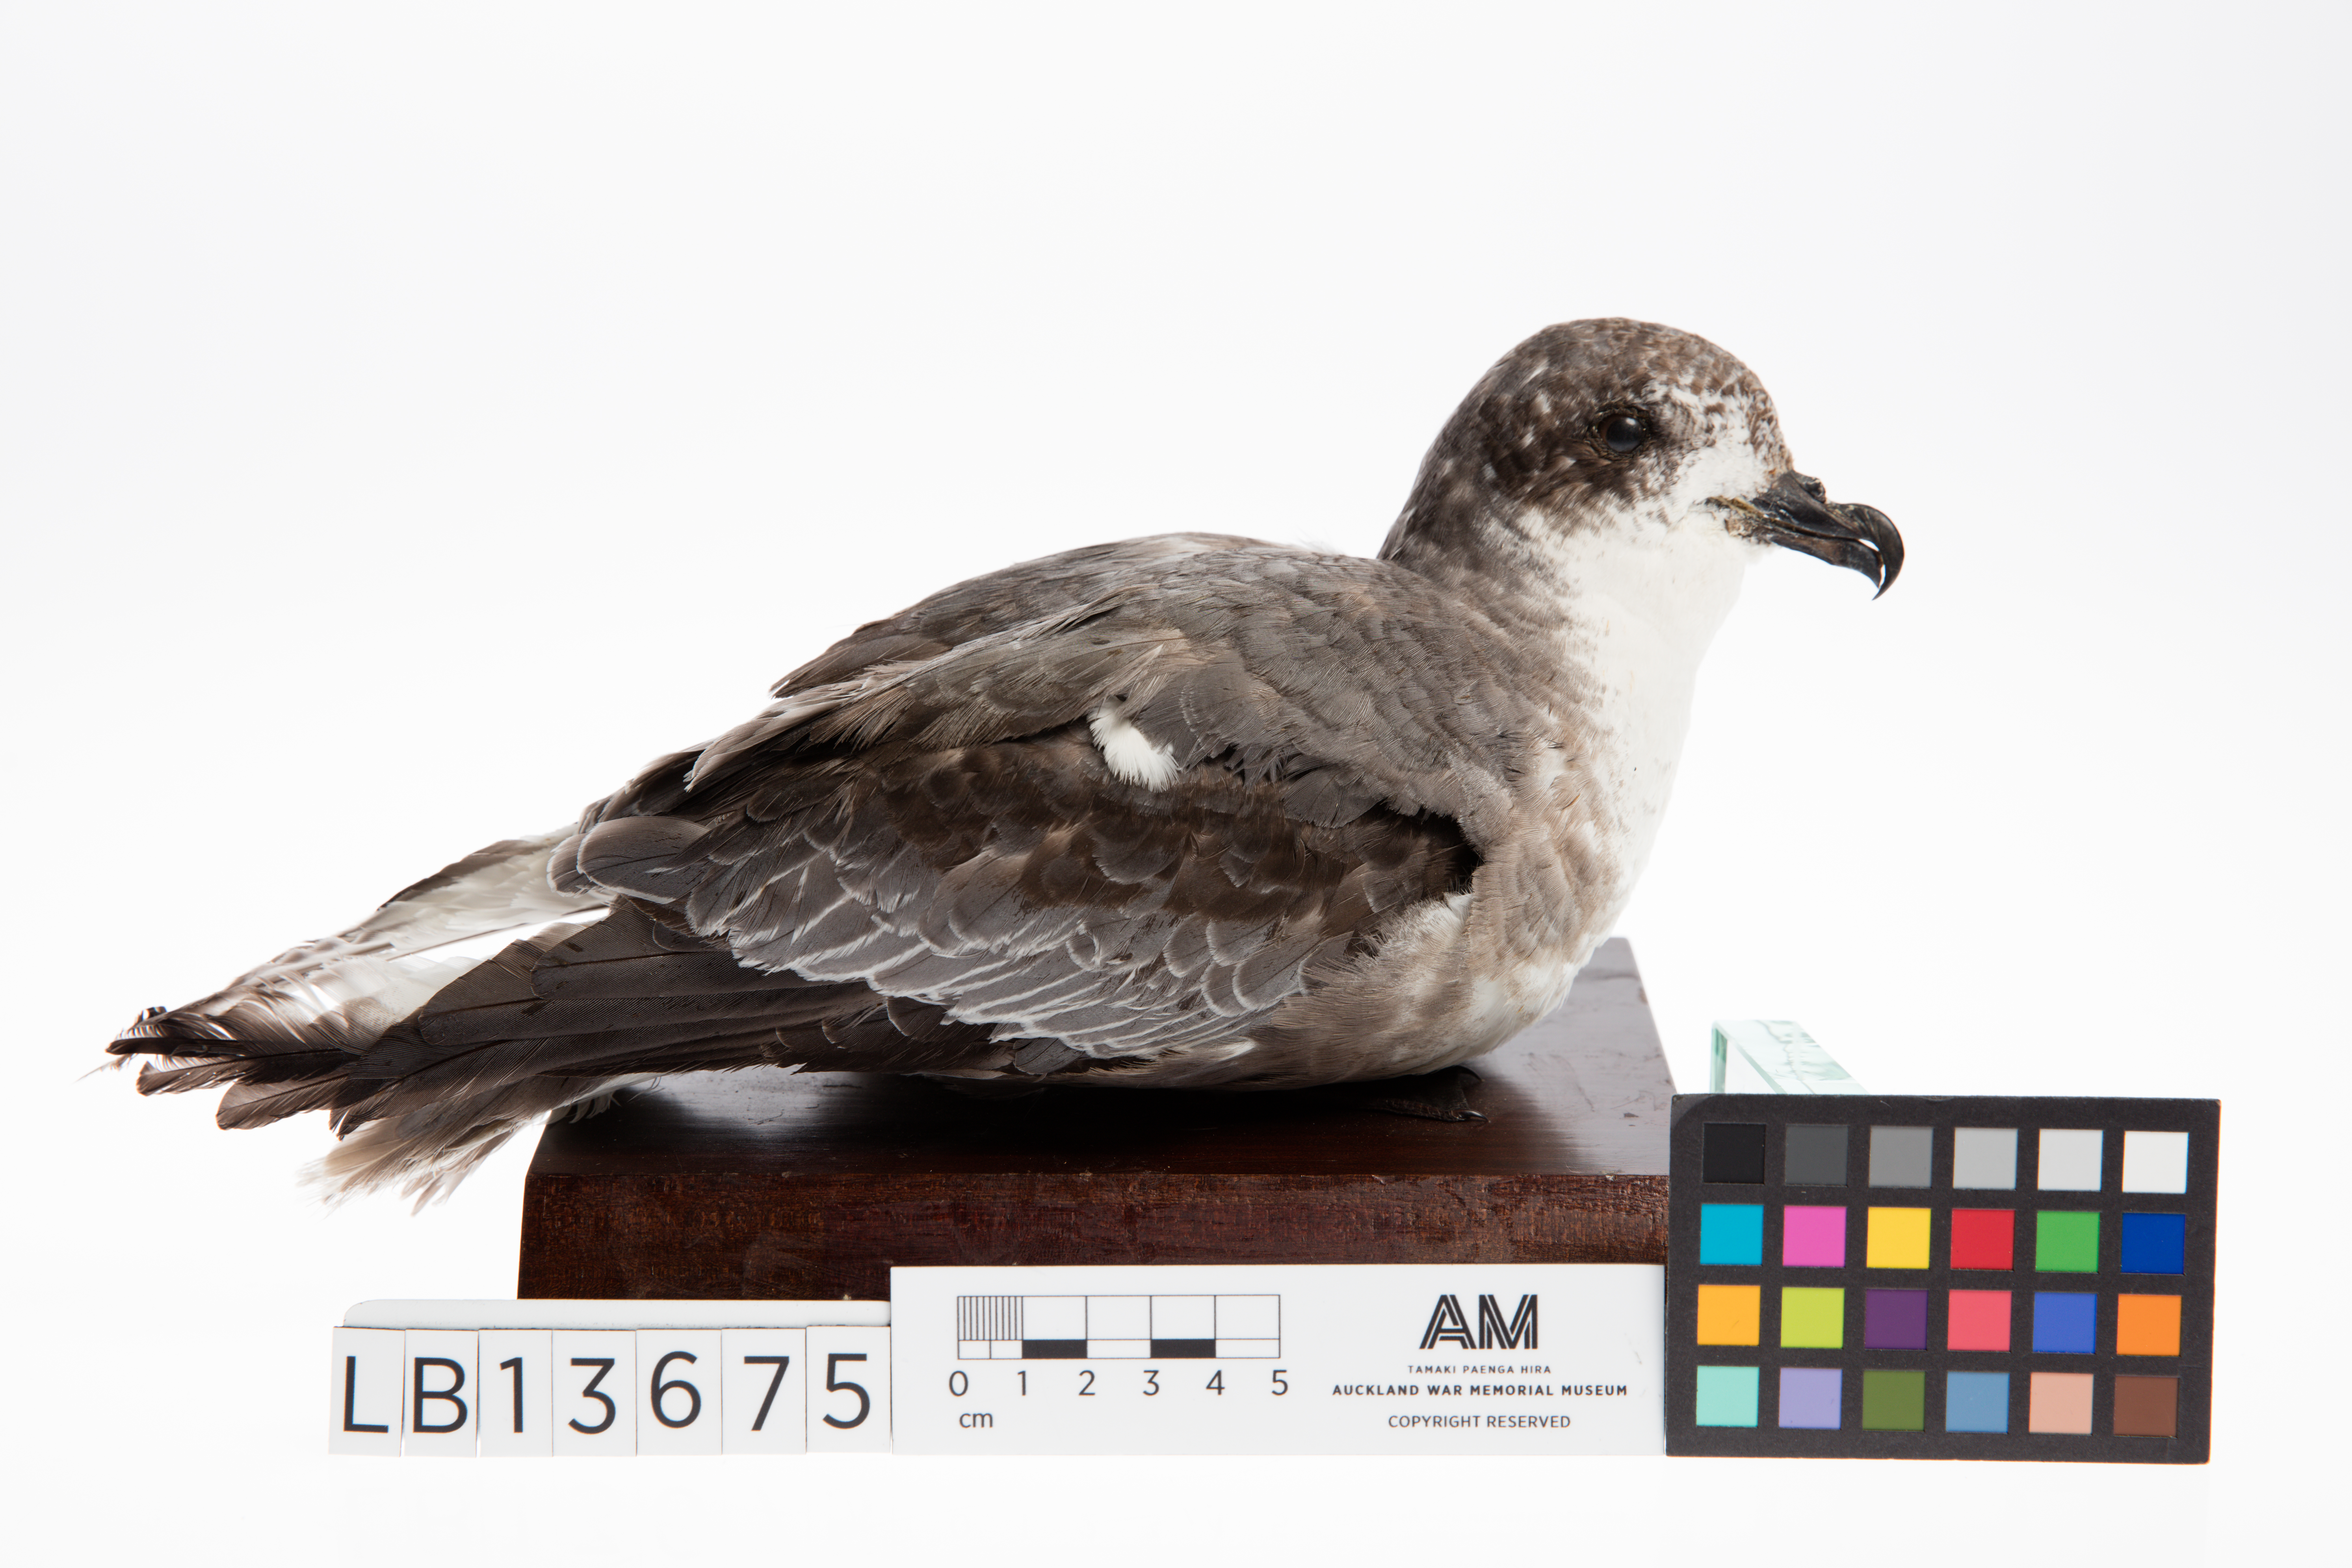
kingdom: Animalia
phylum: Chordata
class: Aves
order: Procellariiformes
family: Procellariidae
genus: Pterodroma
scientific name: Pterodroma inexpectata
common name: Mottled petrel
